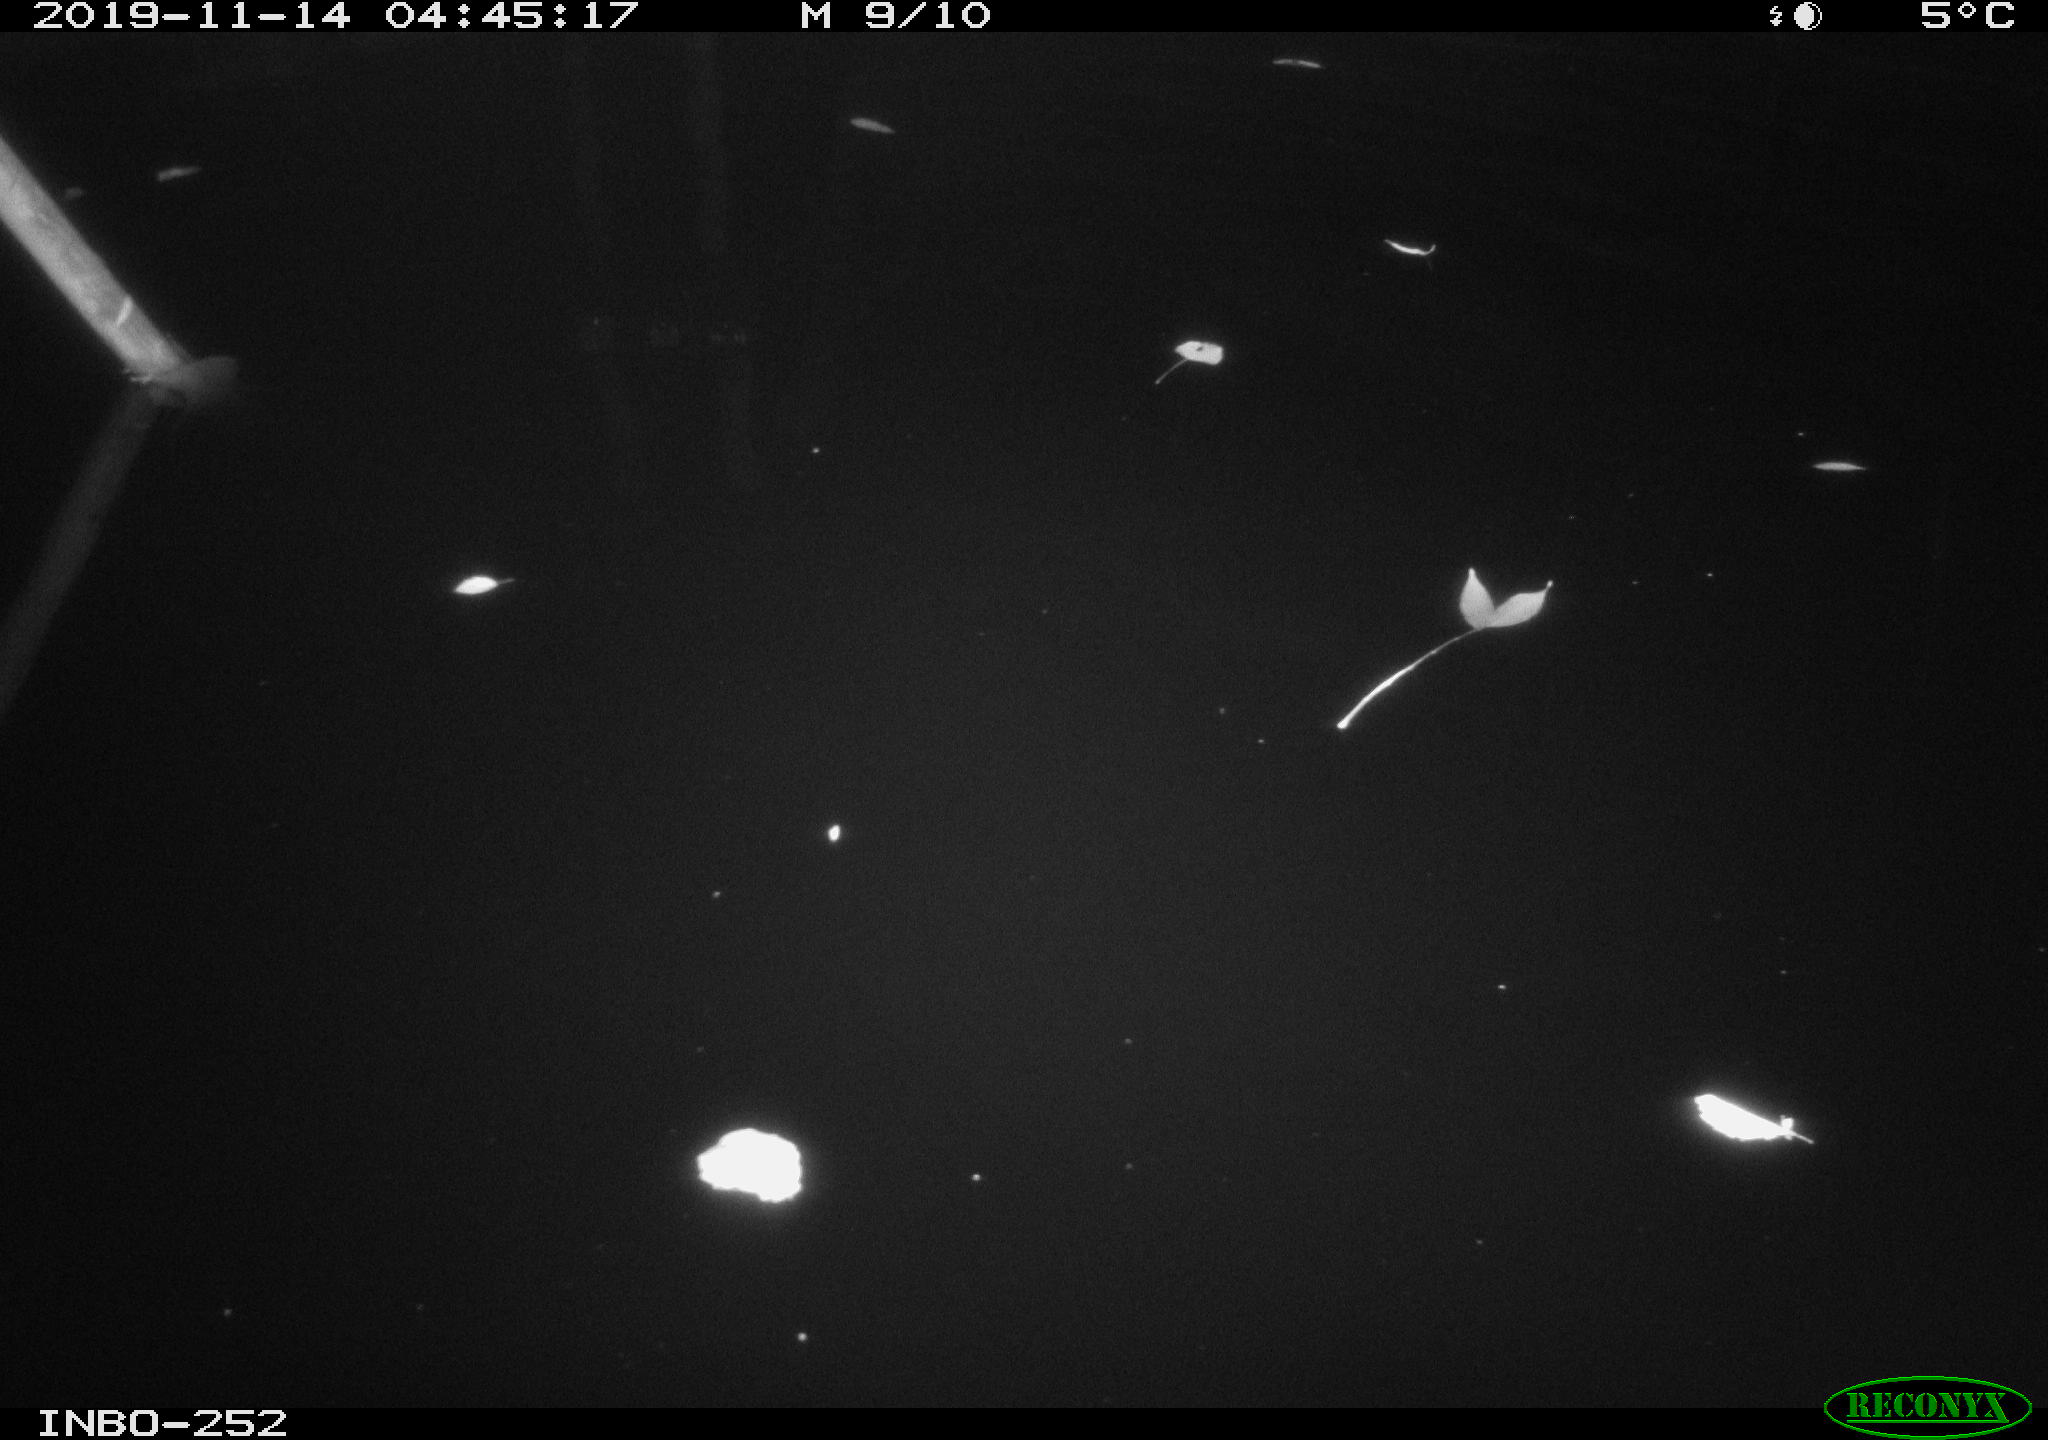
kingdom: Animalia
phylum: Chordata
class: Aves
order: Anseriformes
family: Anatidae
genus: Anas
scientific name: Anas platyrhynchos
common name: Mallard
